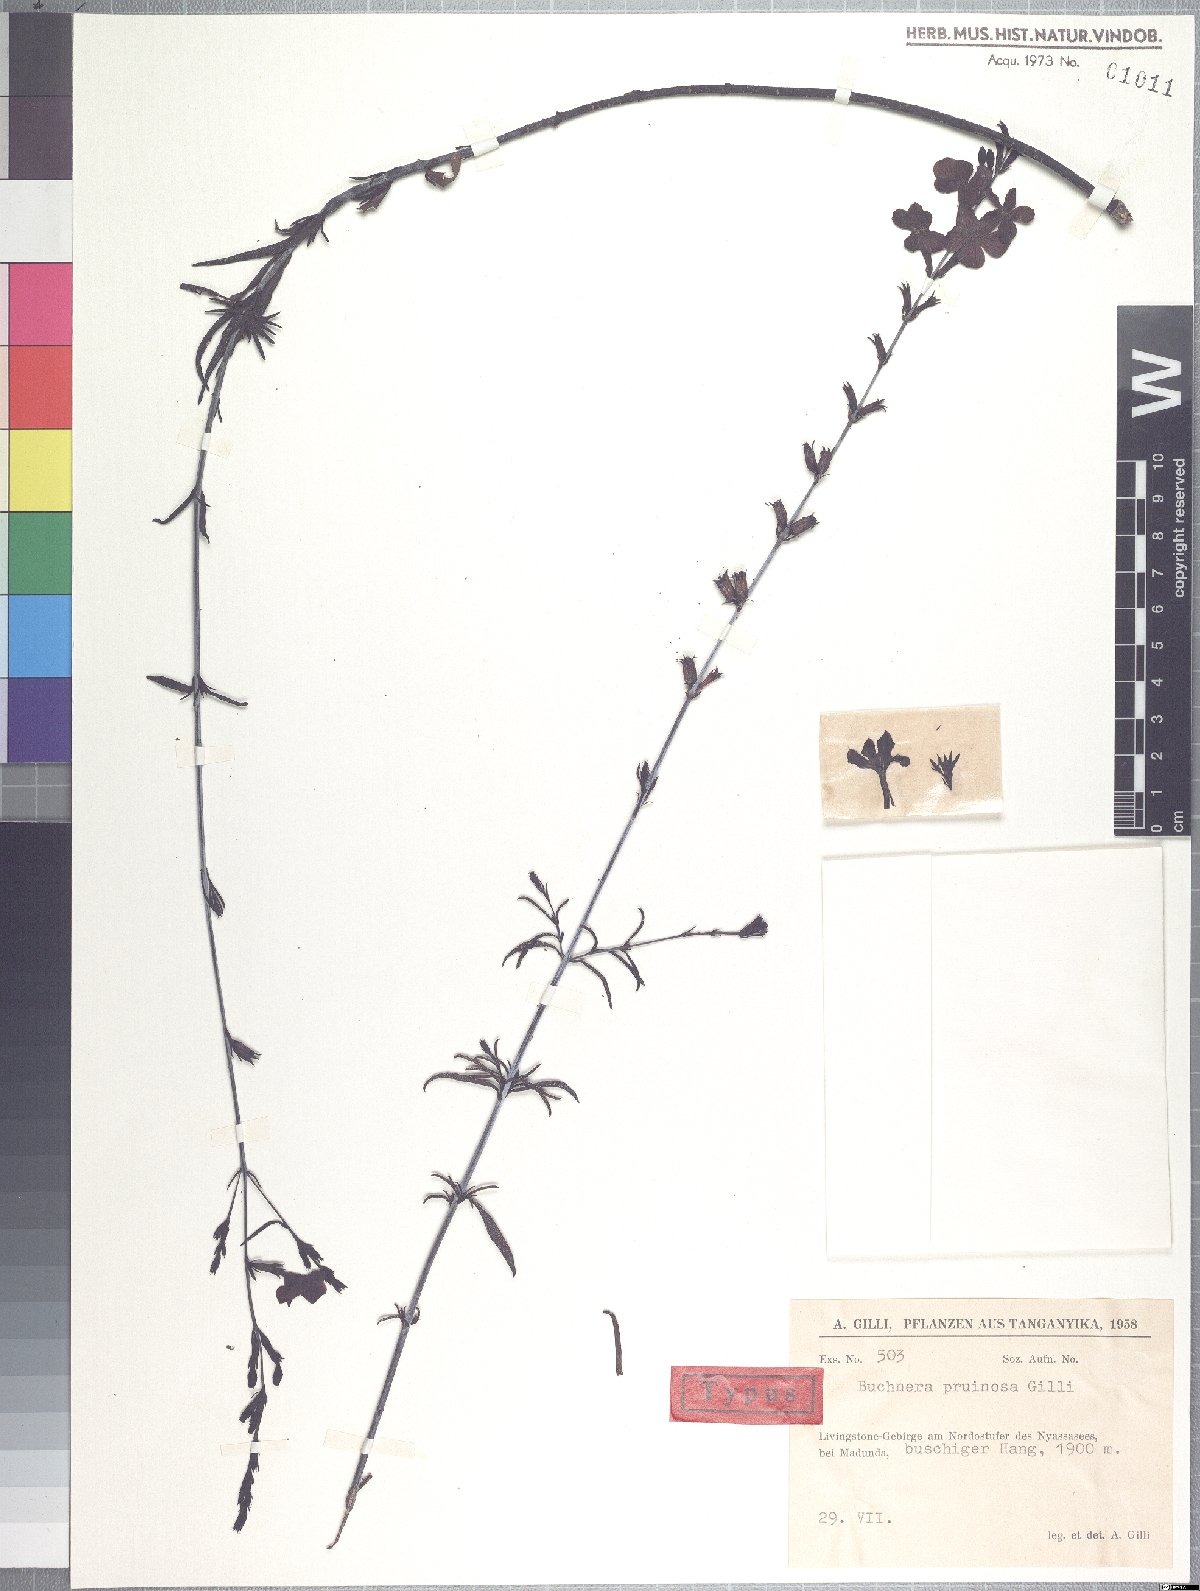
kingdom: Plantae
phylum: Tracheophyta
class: Magnoliopsida
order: Lamiales
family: Orobanchaceae
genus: Buchnera
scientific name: Buchnera speciosa
